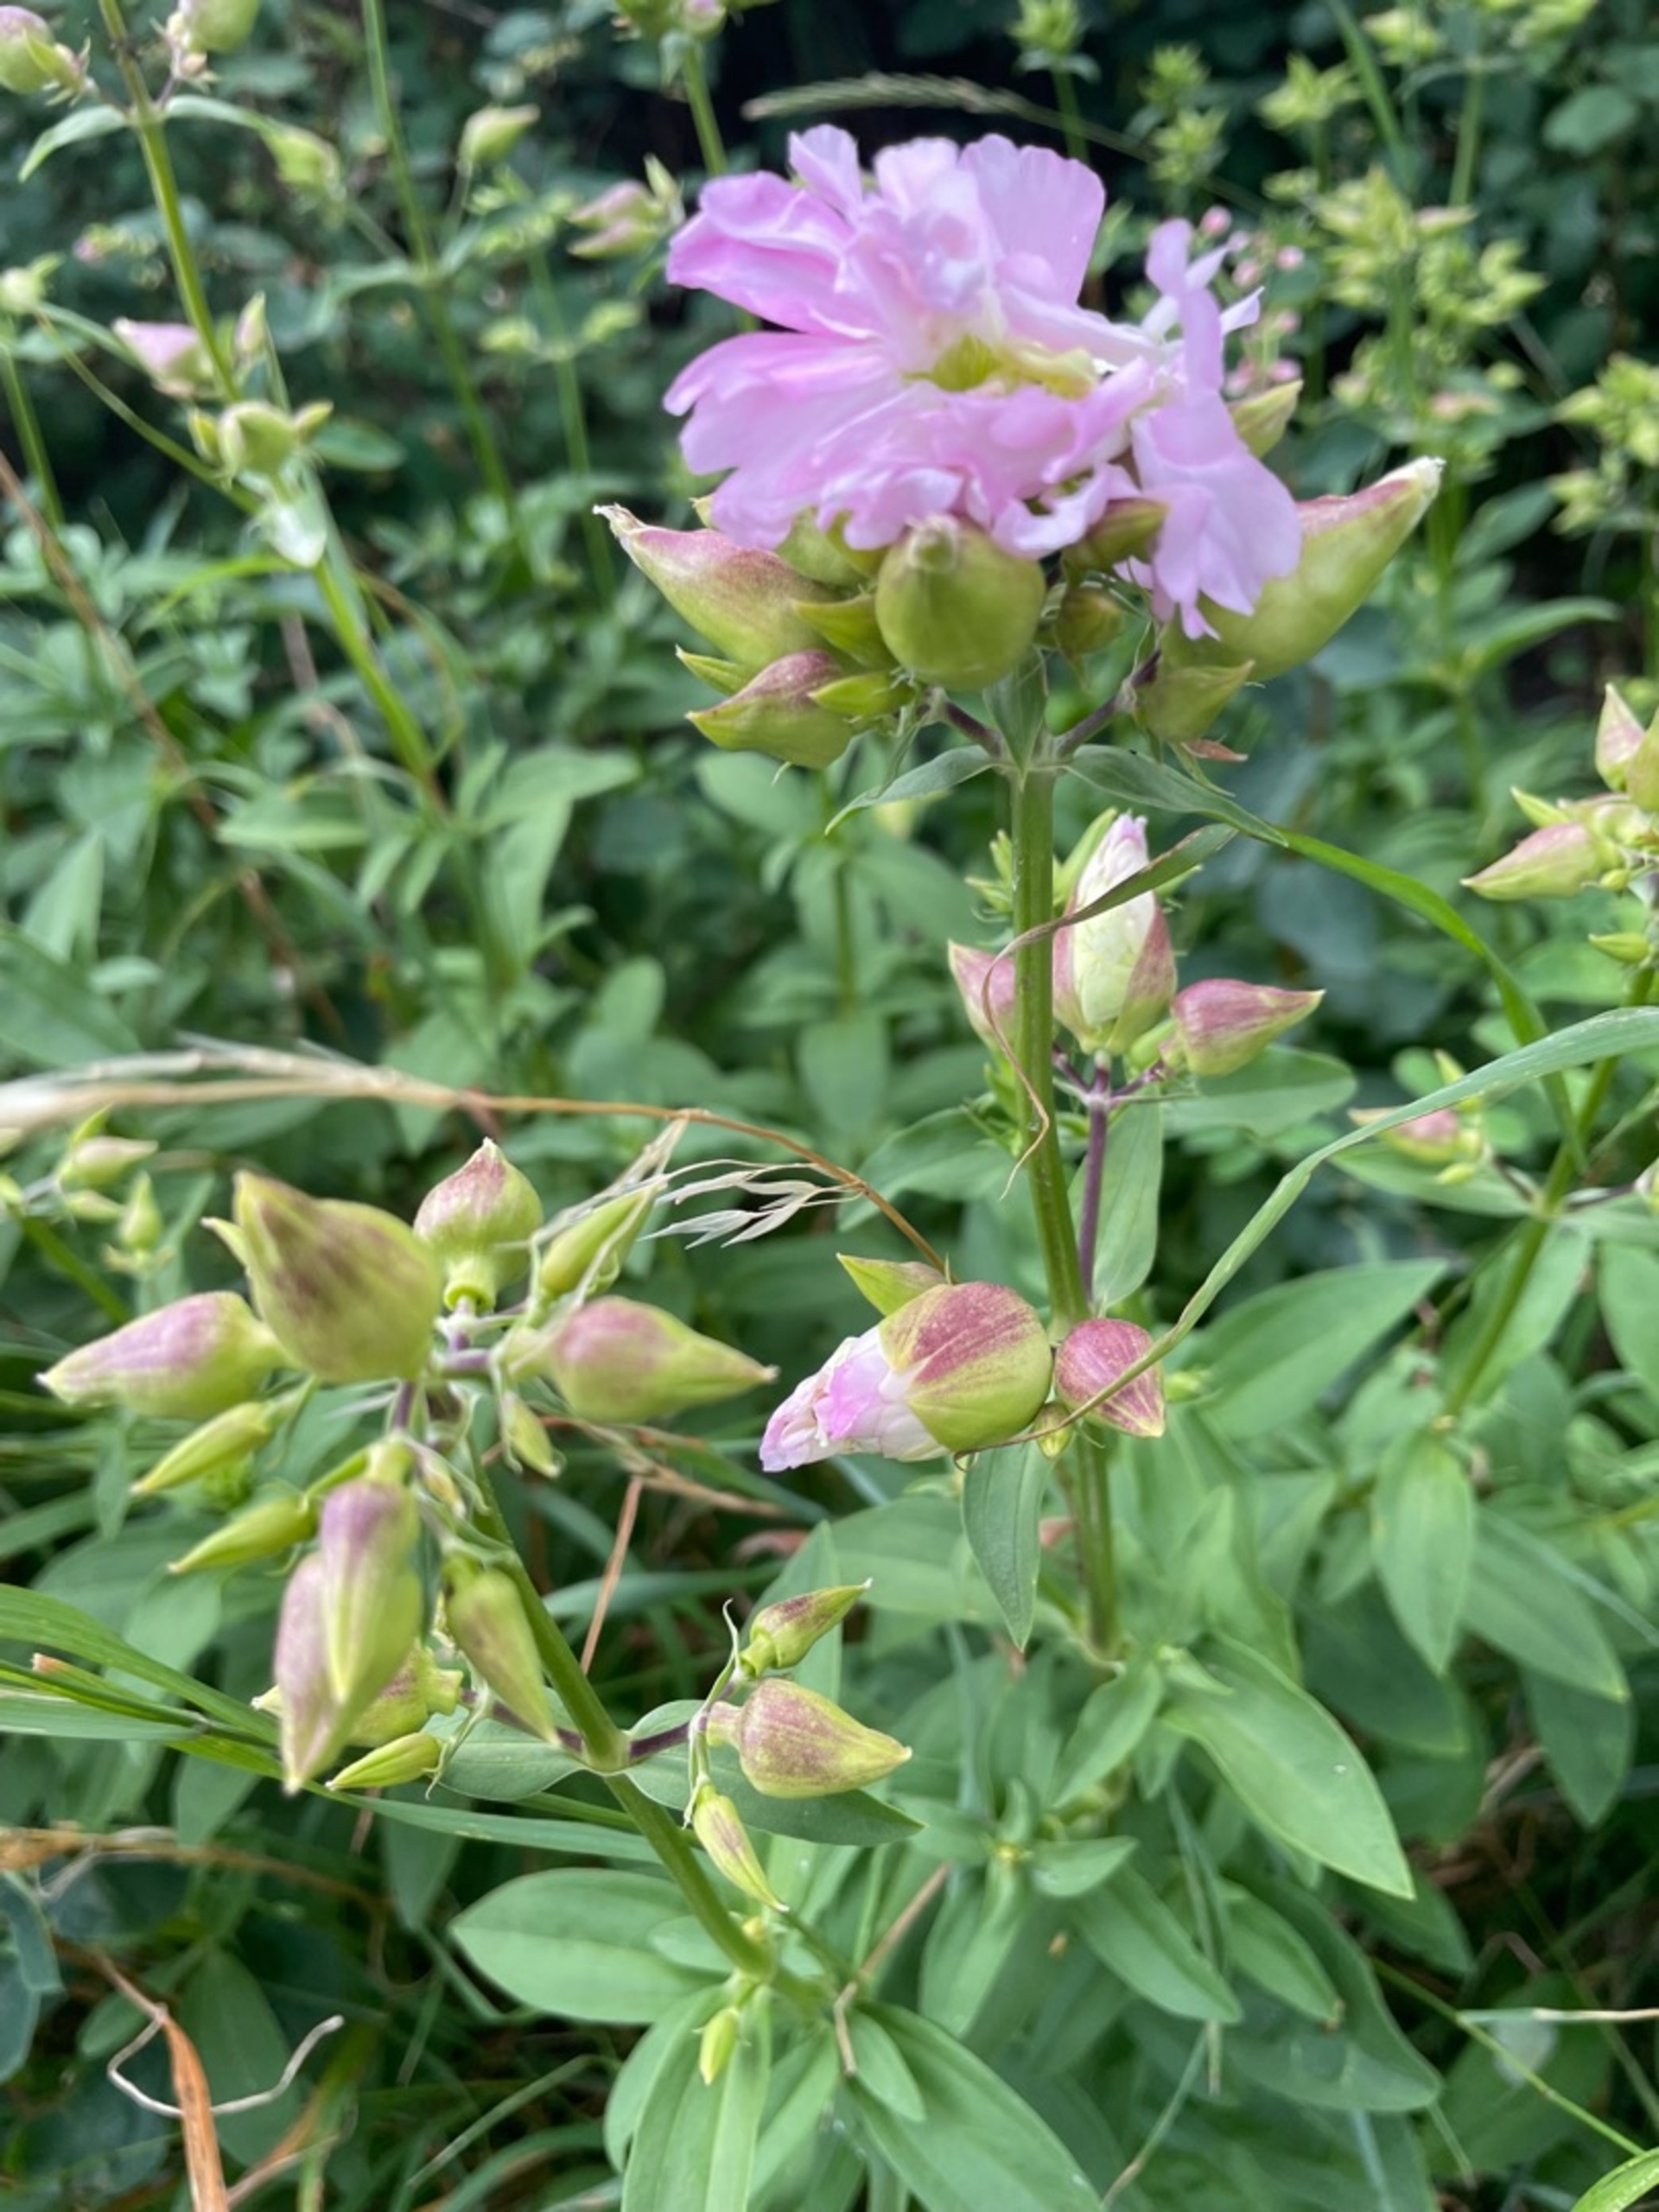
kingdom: Plantae
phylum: Tracheophyta
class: Magnoliopsida
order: Caryophyllales
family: Caryophyllaceae
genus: Saponaria
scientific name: Saponaria officinalis
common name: Sæbeurt
